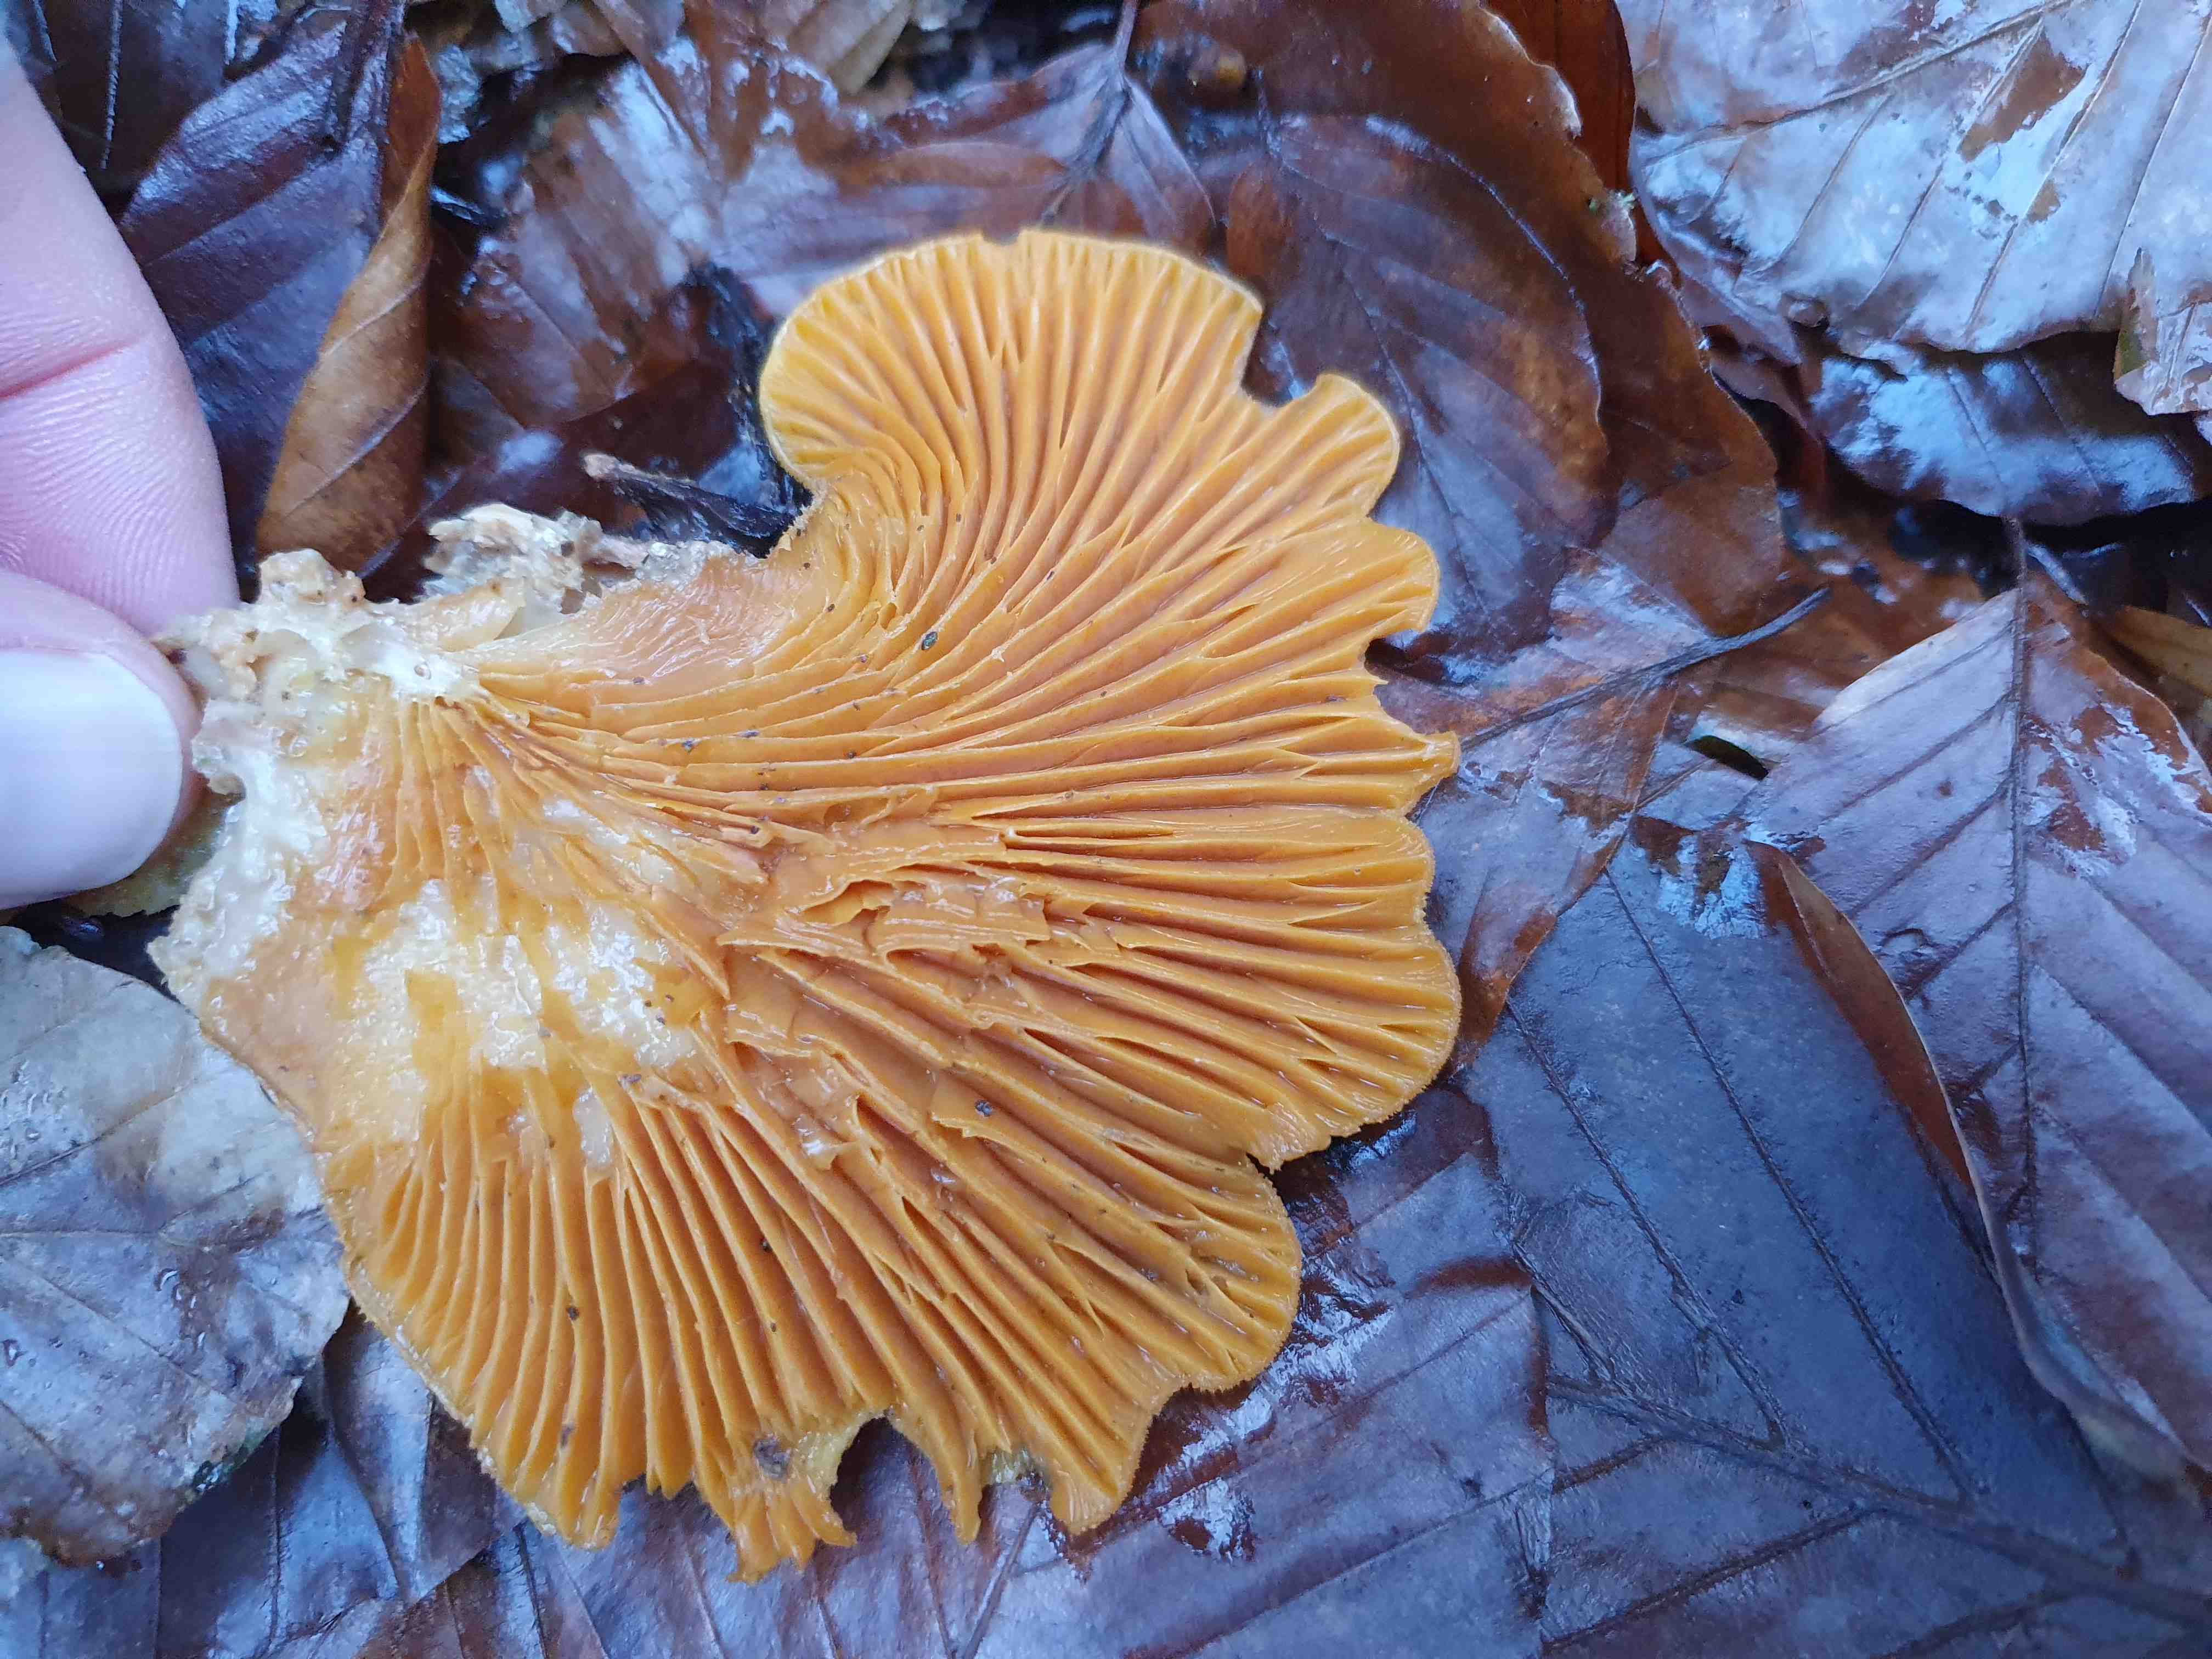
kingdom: Fungi
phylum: Basidiomycota
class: Agaricomycetes
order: Agaricales
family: Phyllotopsidaceae
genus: Phyllotopsis
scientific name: Phyllotopsis nidulans
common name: okkerblad
